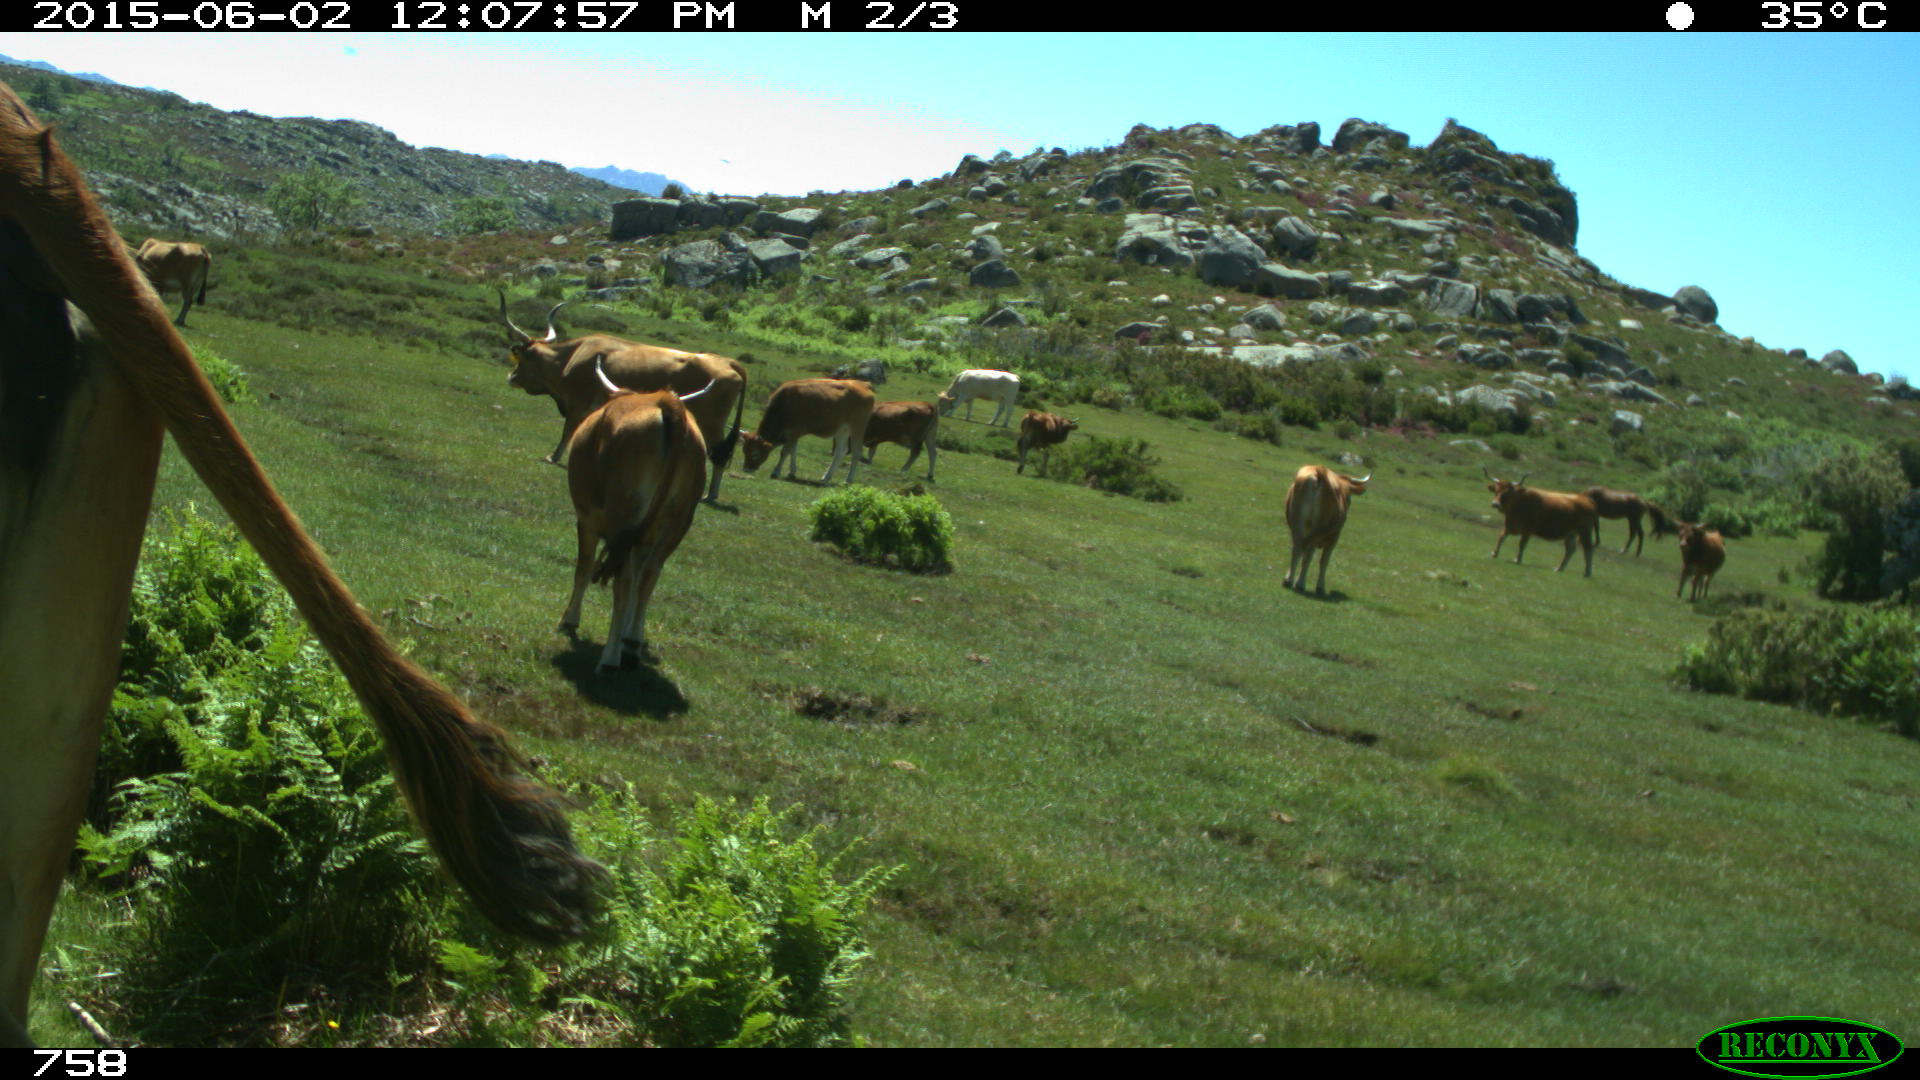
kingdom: Animalia
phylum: Chordata
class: Mammalia
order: Artiodactyla
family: Bovidae
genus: Bos
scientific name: Bos taurus
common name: Domesticated cattle
